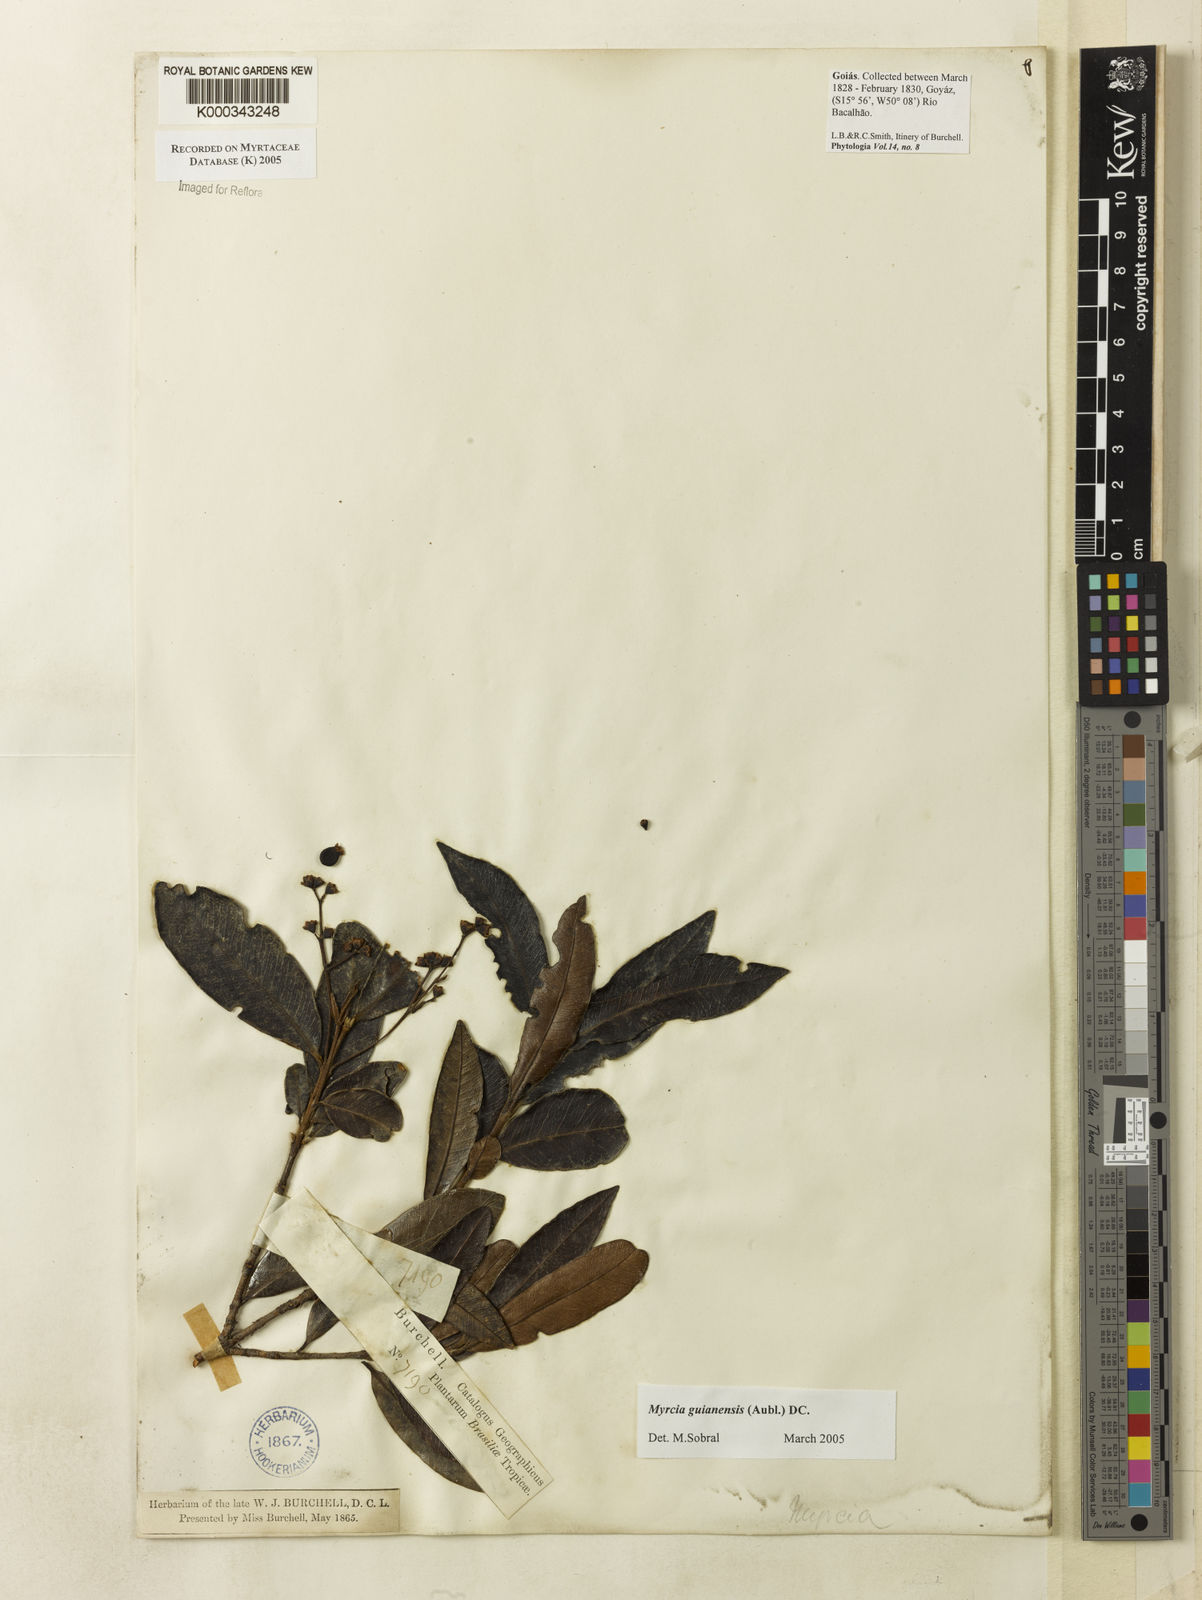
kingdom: Plantae
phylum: Tracheophyta
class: Magnoliopsida
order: Myrtales
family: Myrtaceae
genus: Myrcia
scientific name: Myrcia guianensis
